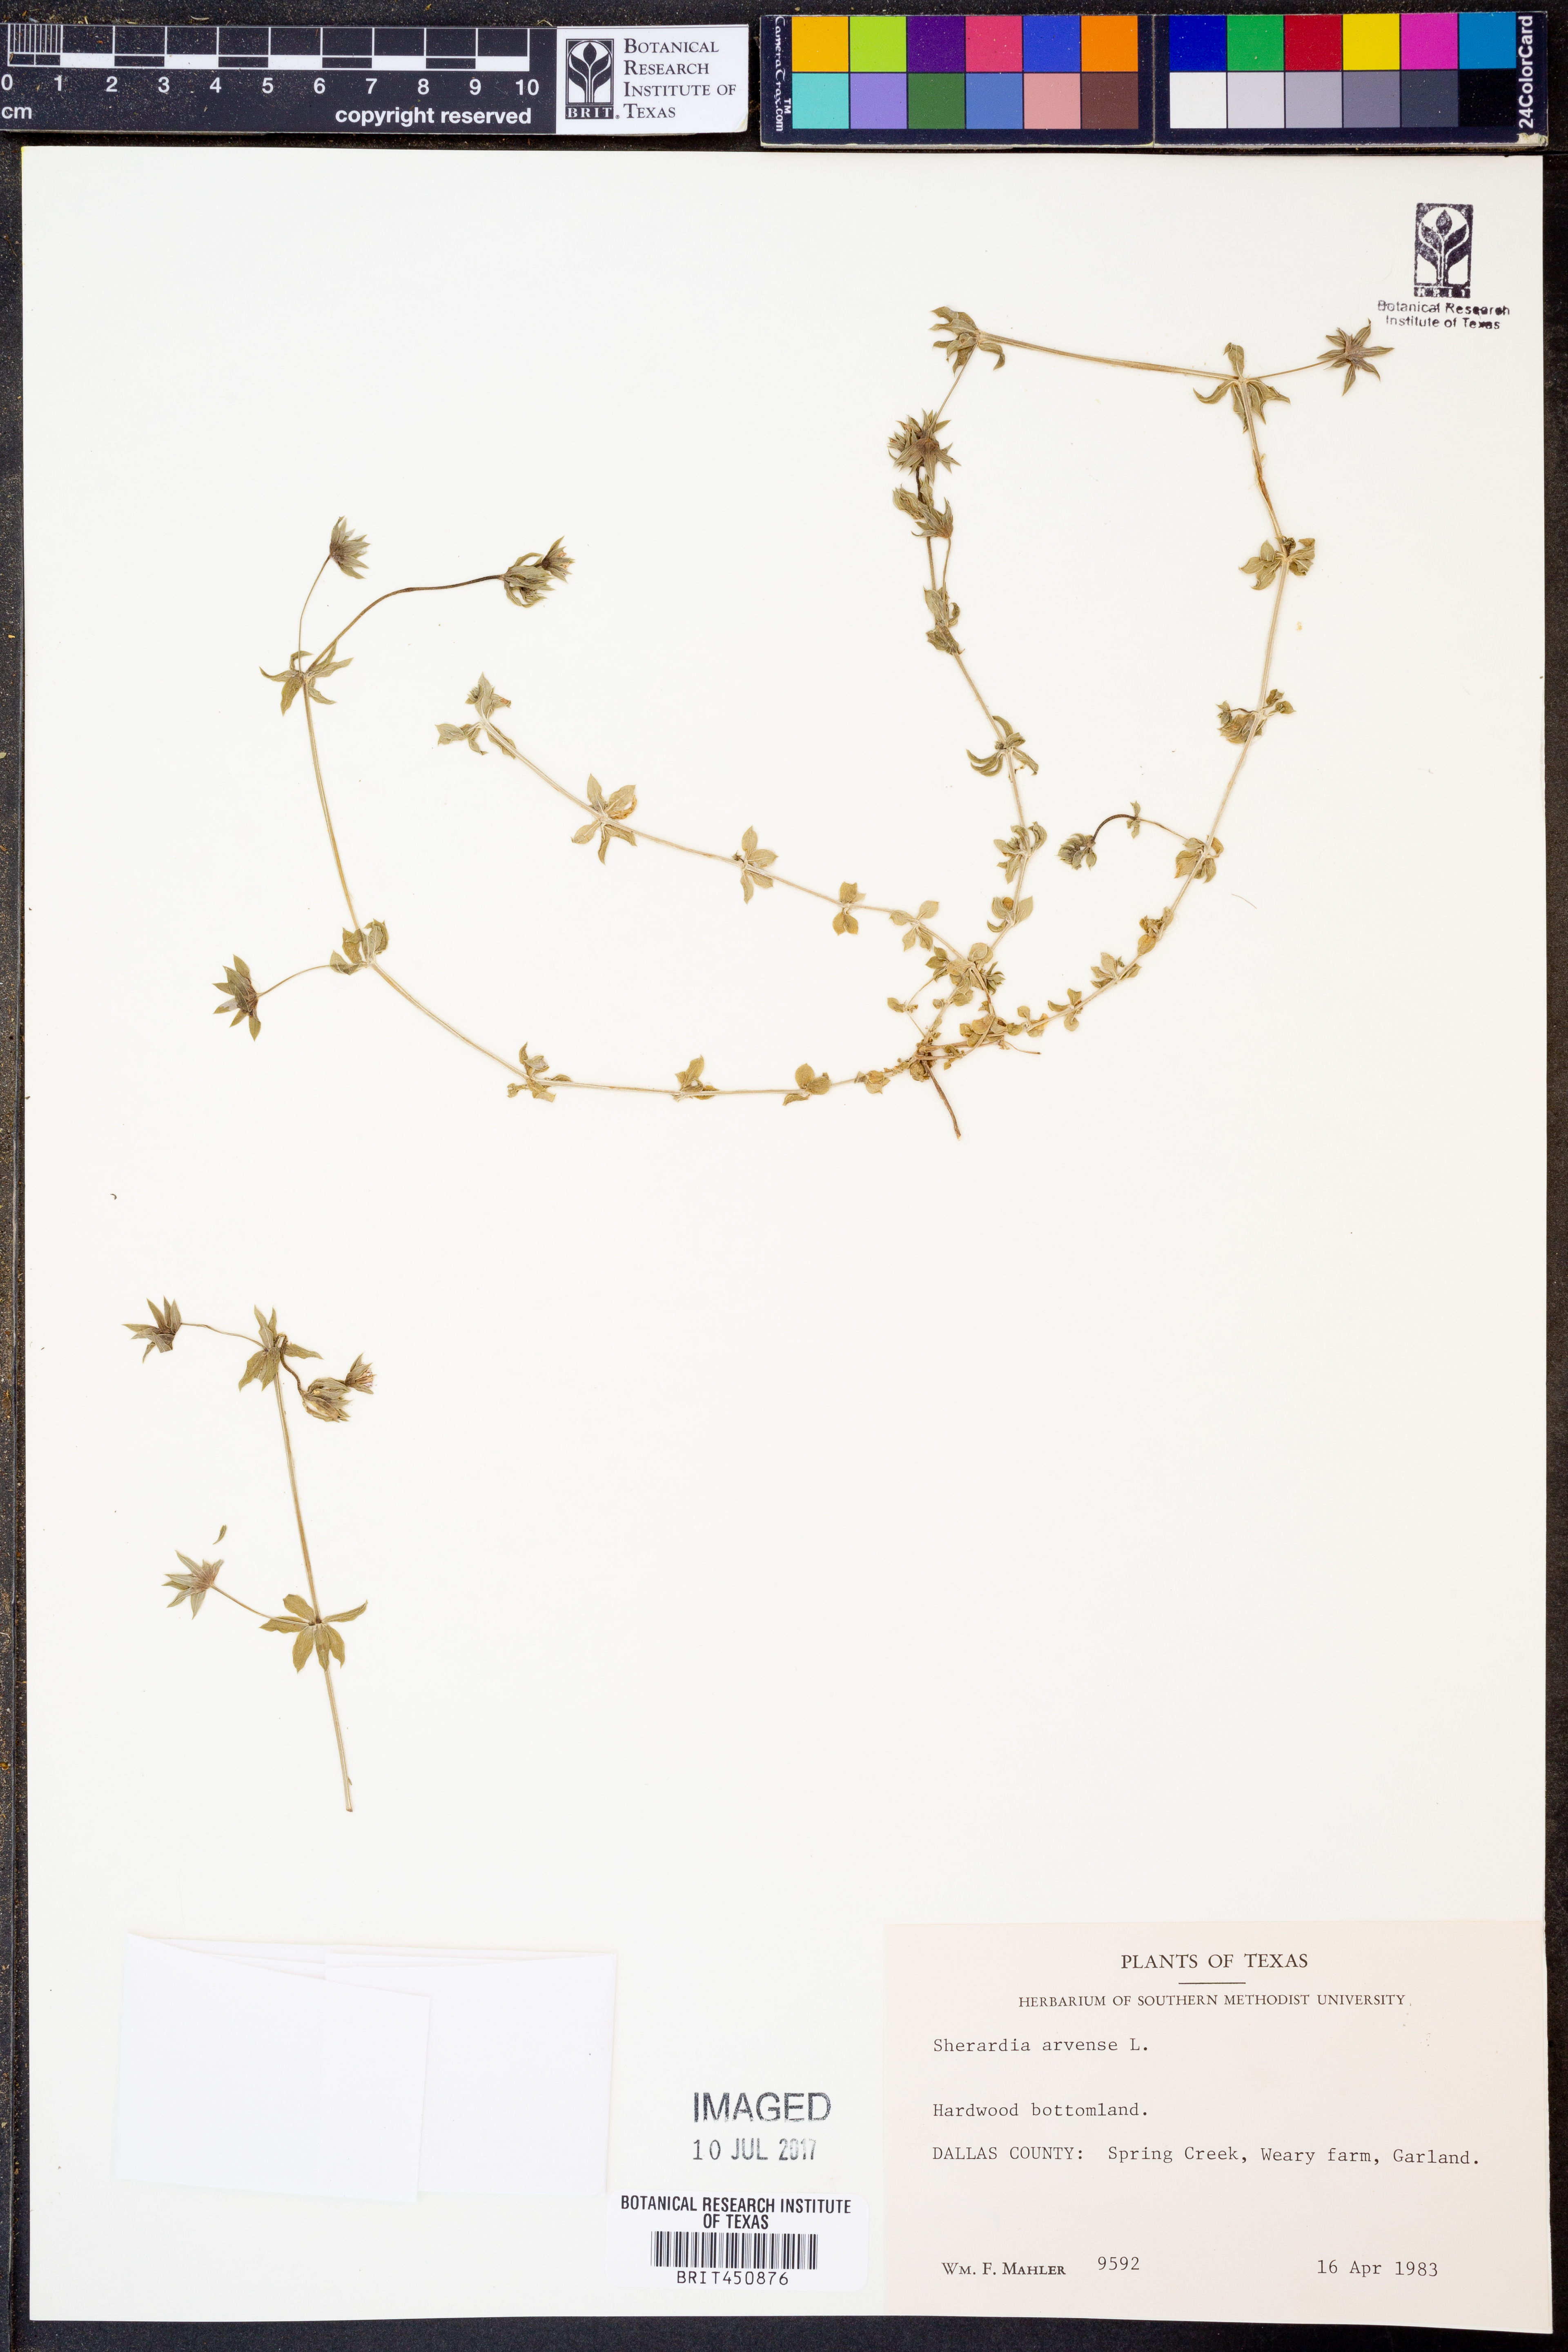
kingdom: Plantae
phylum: Tracheophyta
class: Magnoliopsida
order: Gentianales
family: Rubiaceae
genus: Sherardia
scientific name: Sherardia arvensis
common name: Field madder
